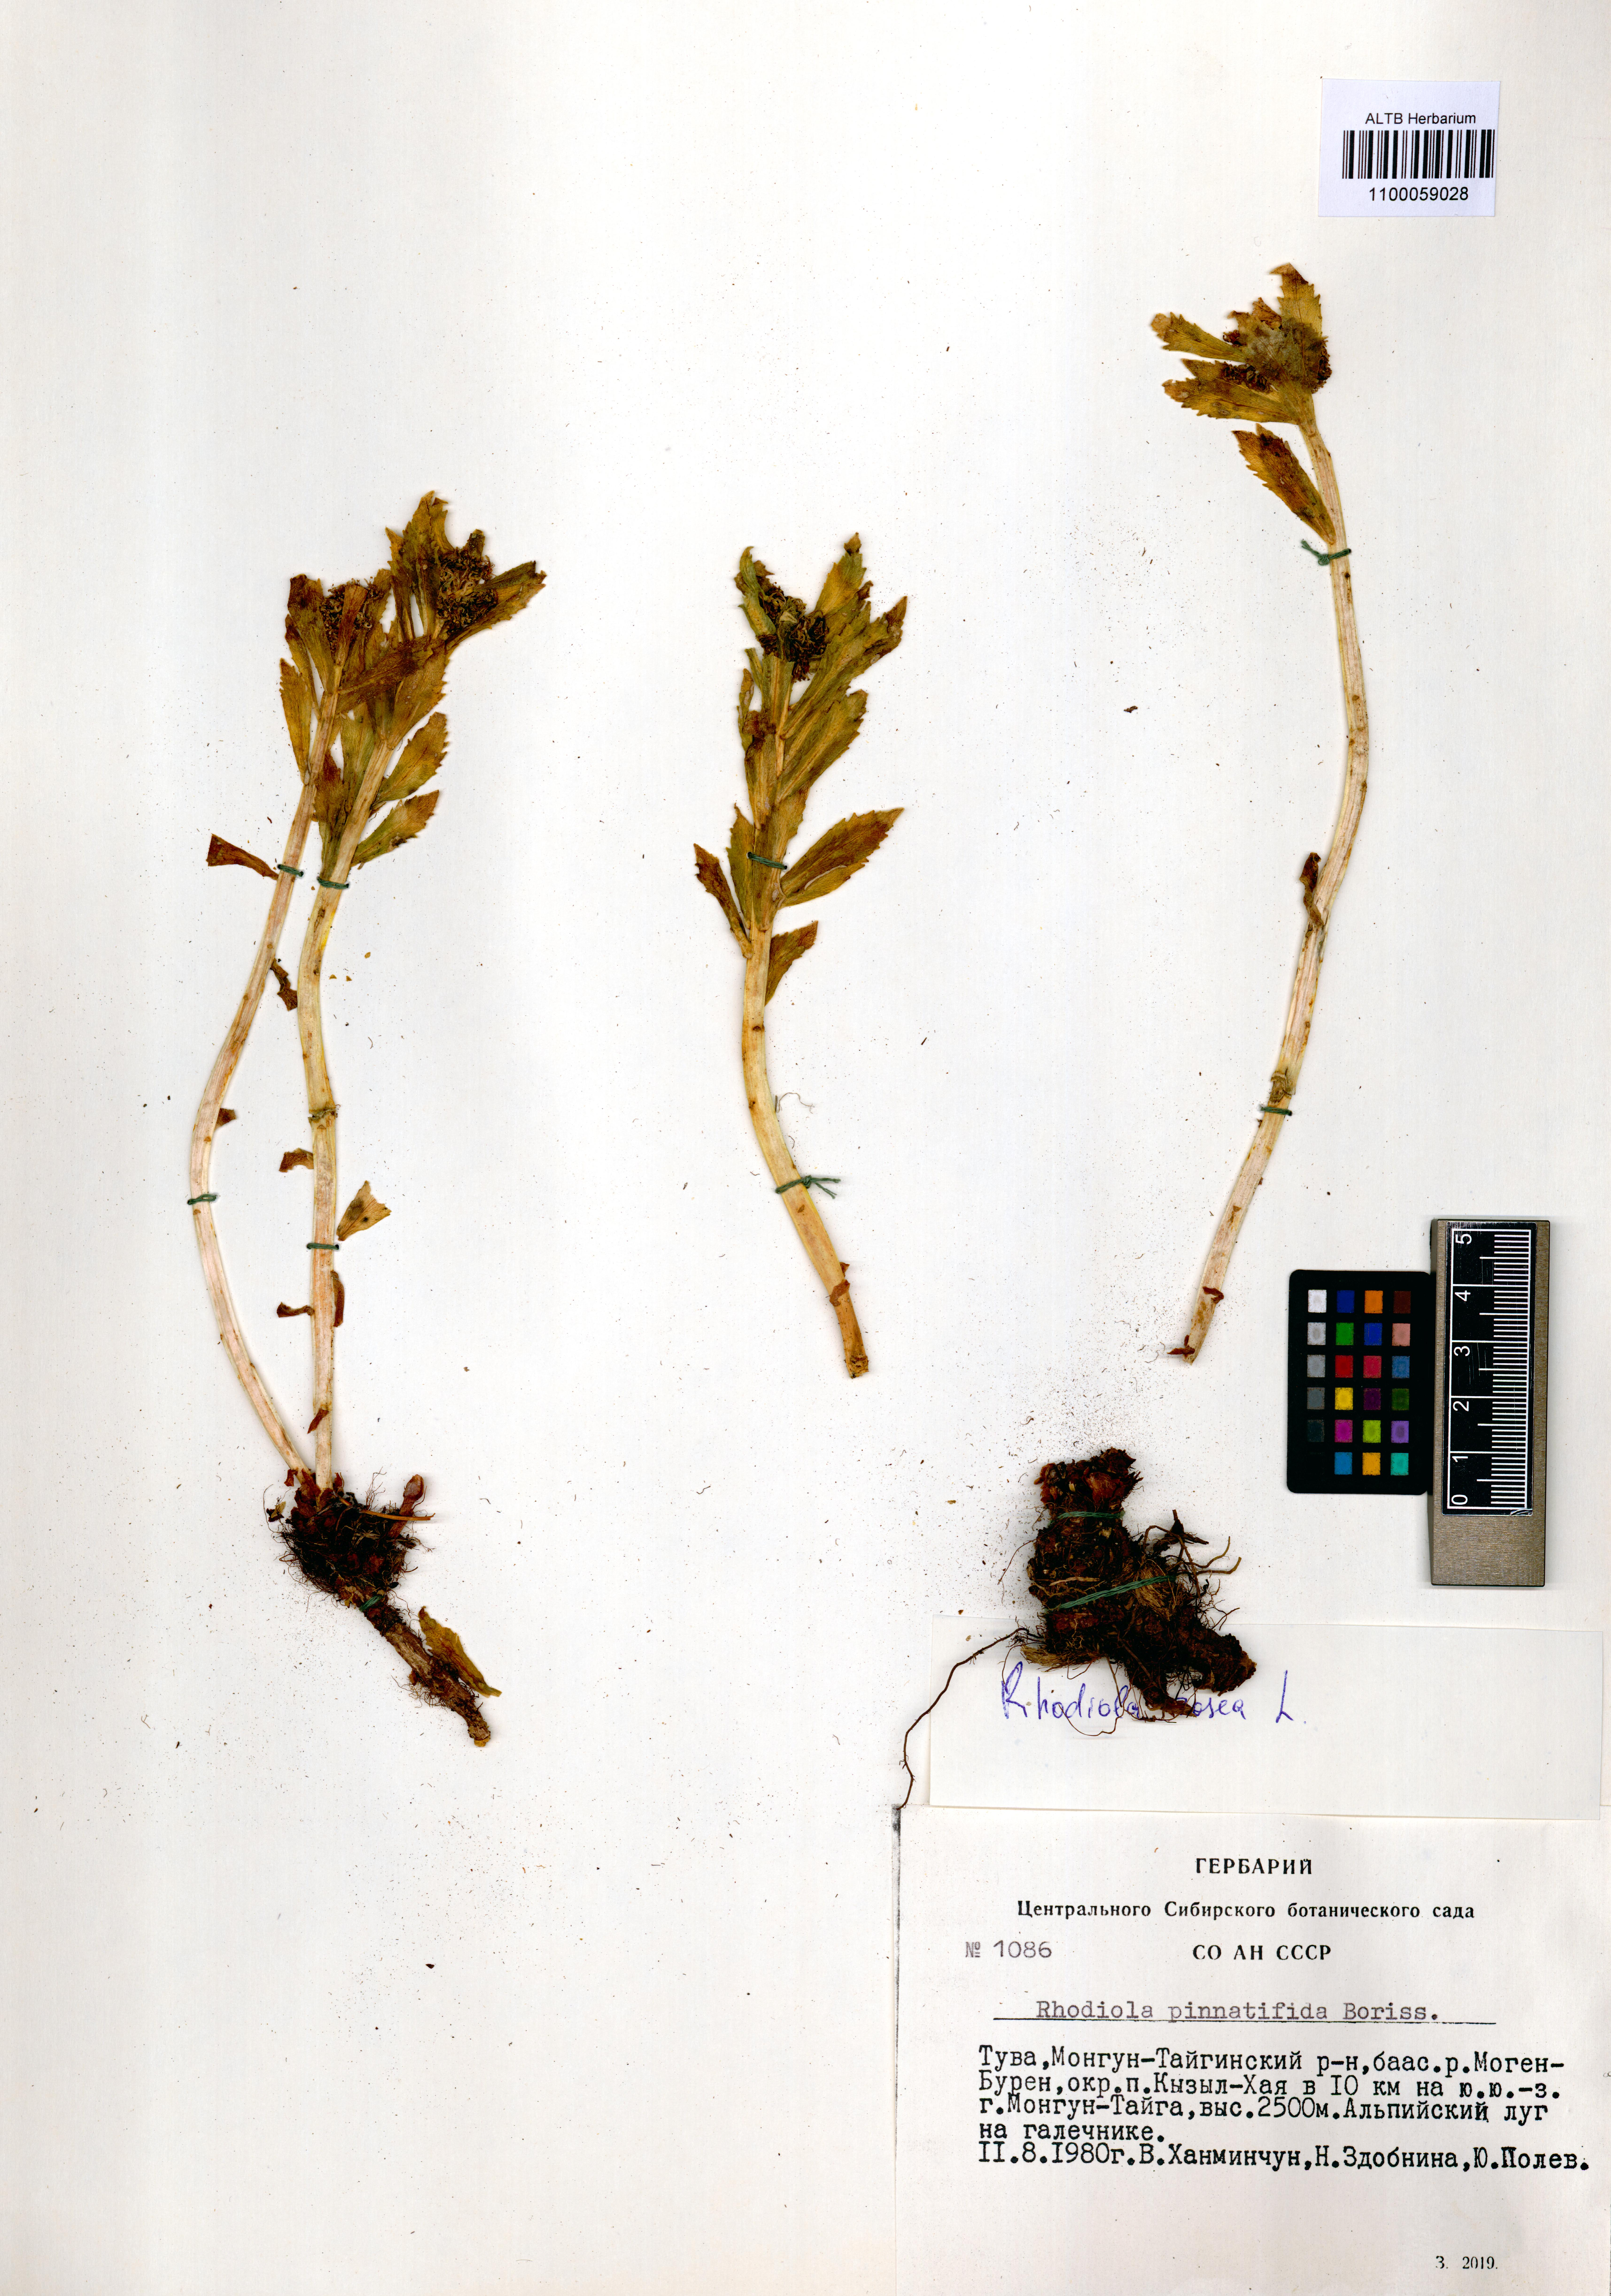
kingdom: Plantae
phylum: Tracheophyta
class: Magnoliopsida
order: Saxifragales
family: Crassulaceae
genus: Rhodiola
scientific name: Rhodiola stephani
